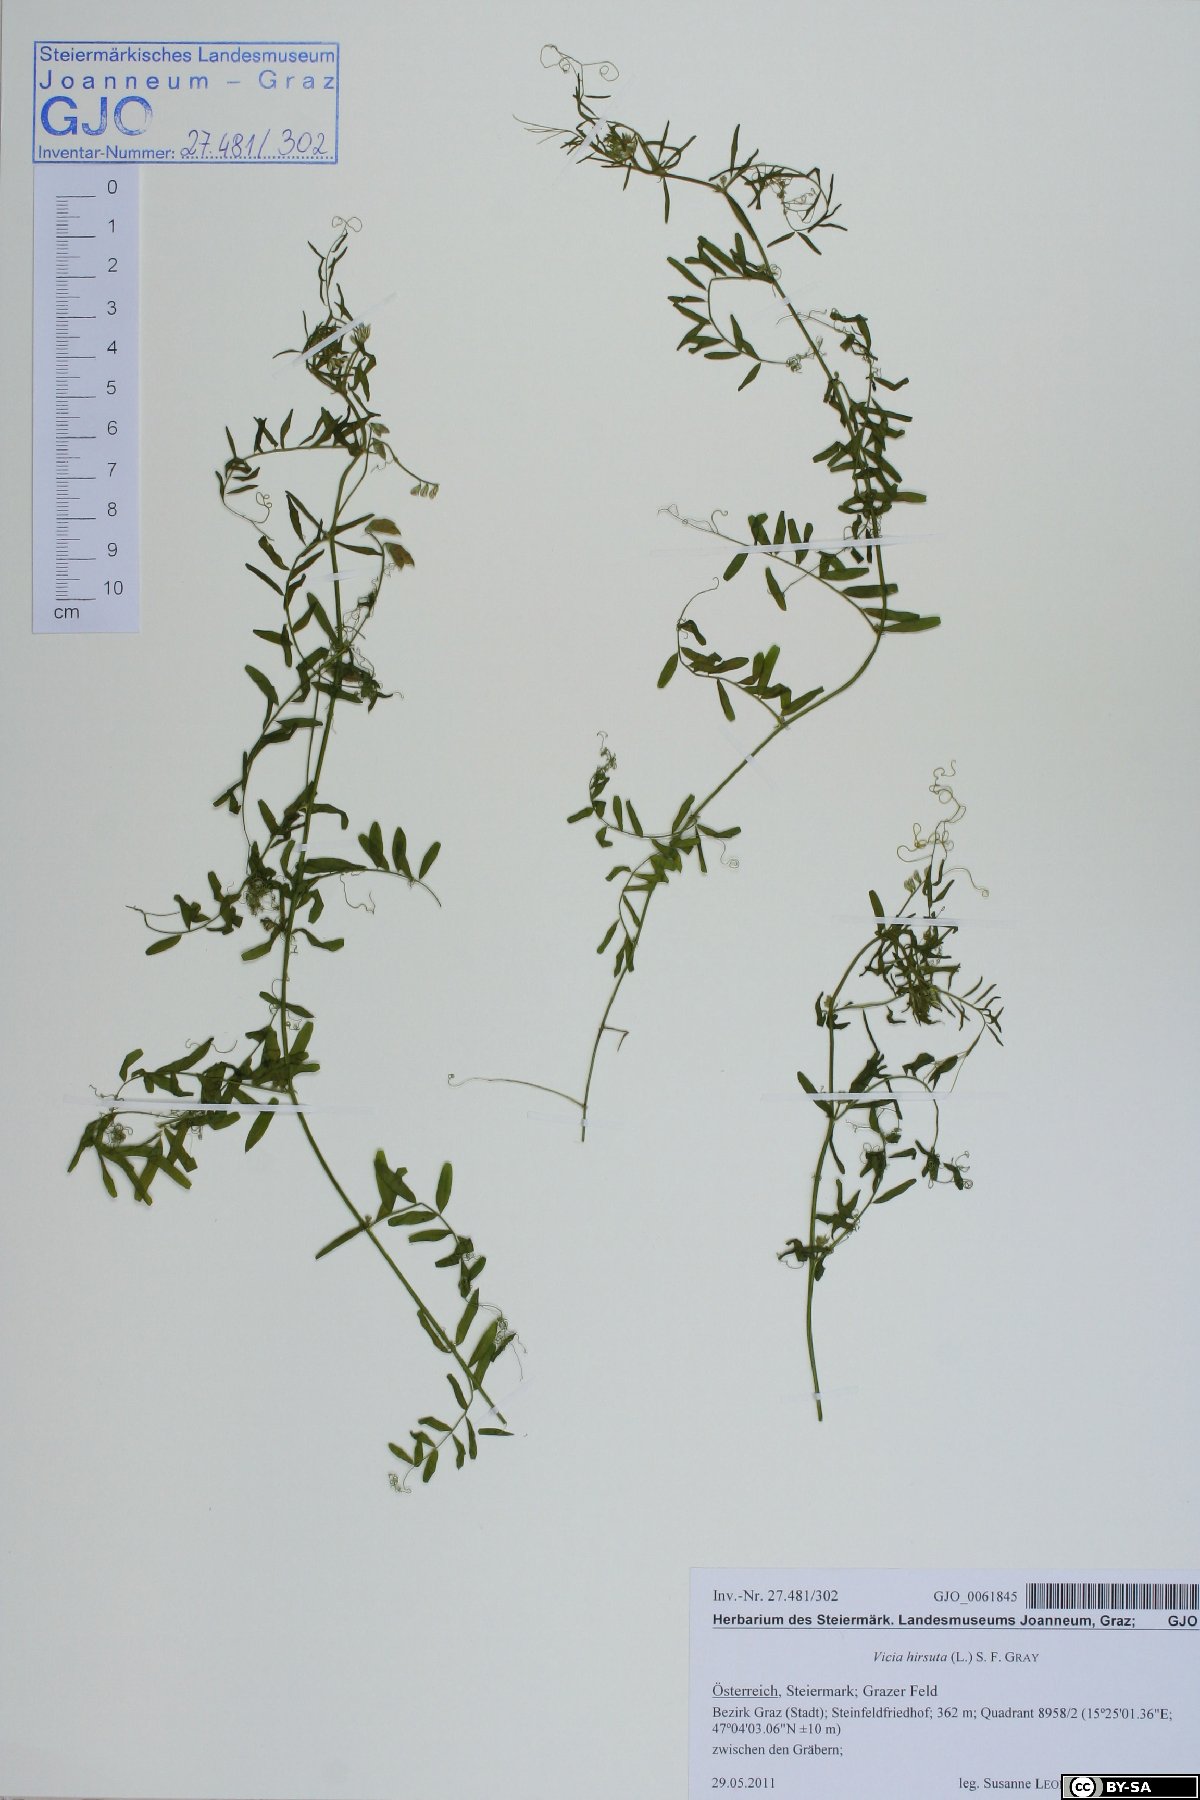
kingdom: Plantae
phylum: Tracheophyta
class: Magnoliopsida
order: Fabales
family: Fabaceae
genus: Vicia
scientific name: Vicia hirsuta
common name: Tiny vetch
